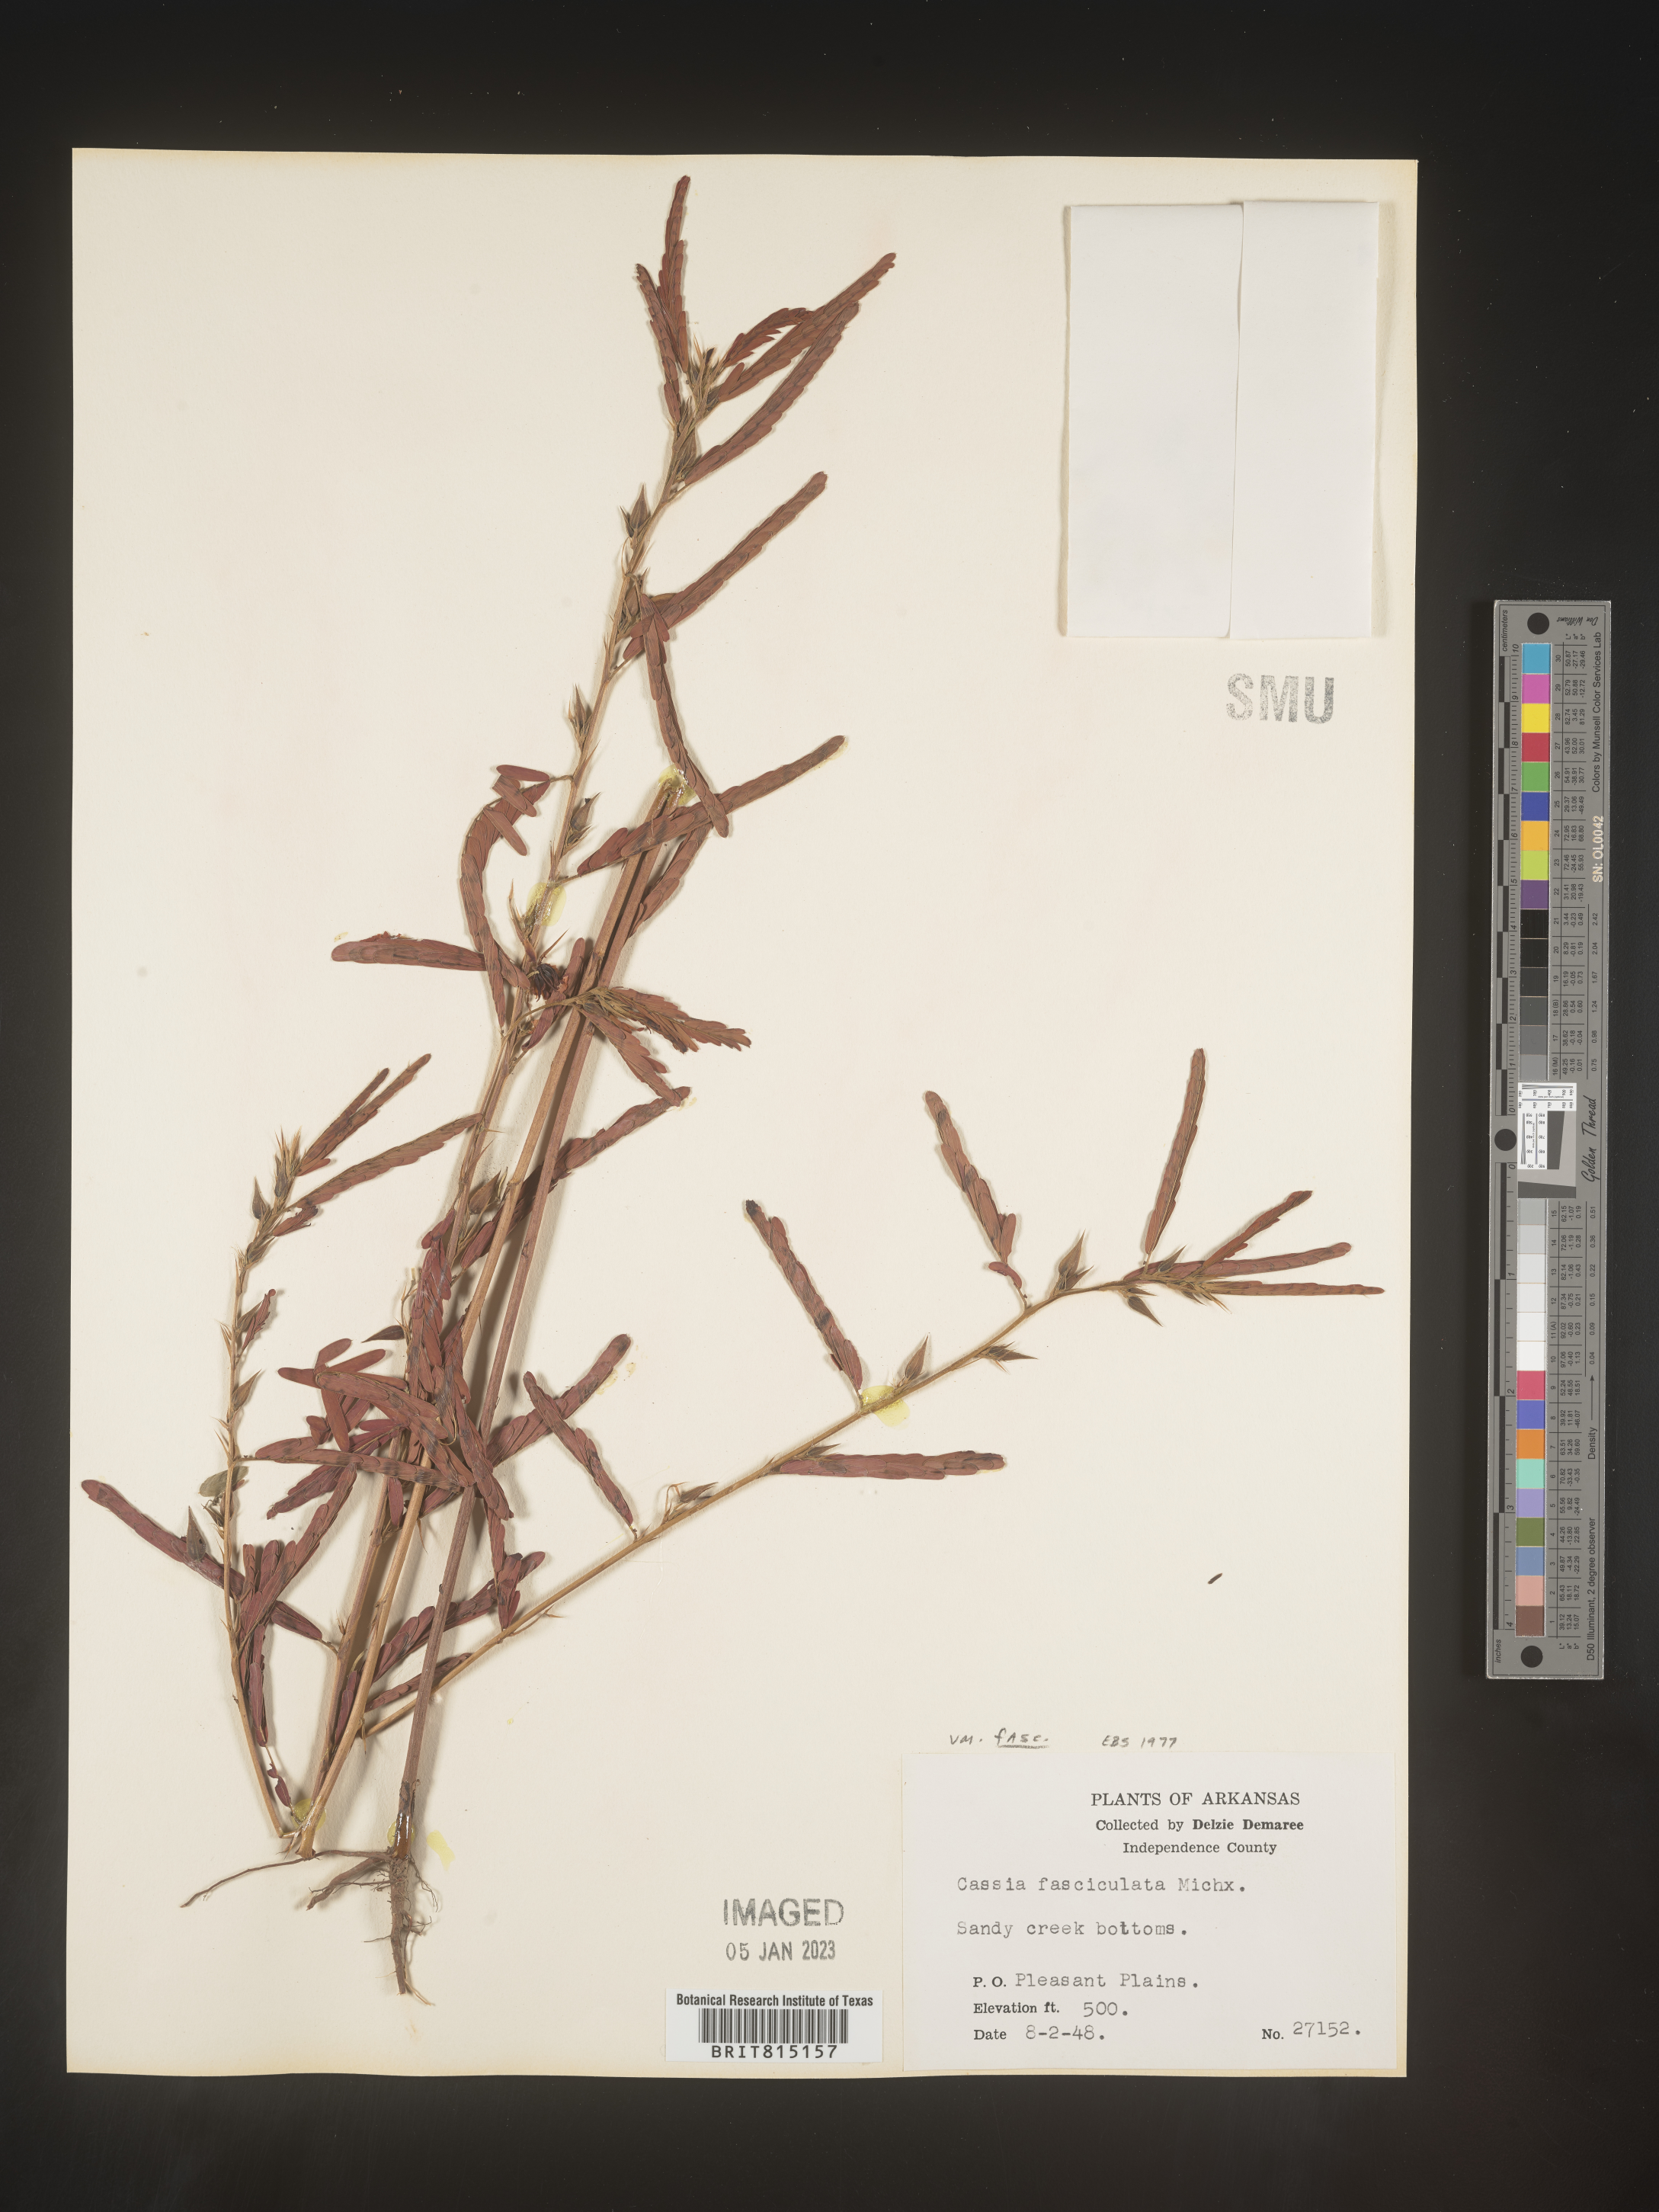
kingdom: Plantae
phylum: Tracheophyta
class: Magnoliopsida
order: Fabales
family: Fabaceae
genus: Chamaecrista
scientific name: Chamaecrista fasciculata
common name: Golden cassia
